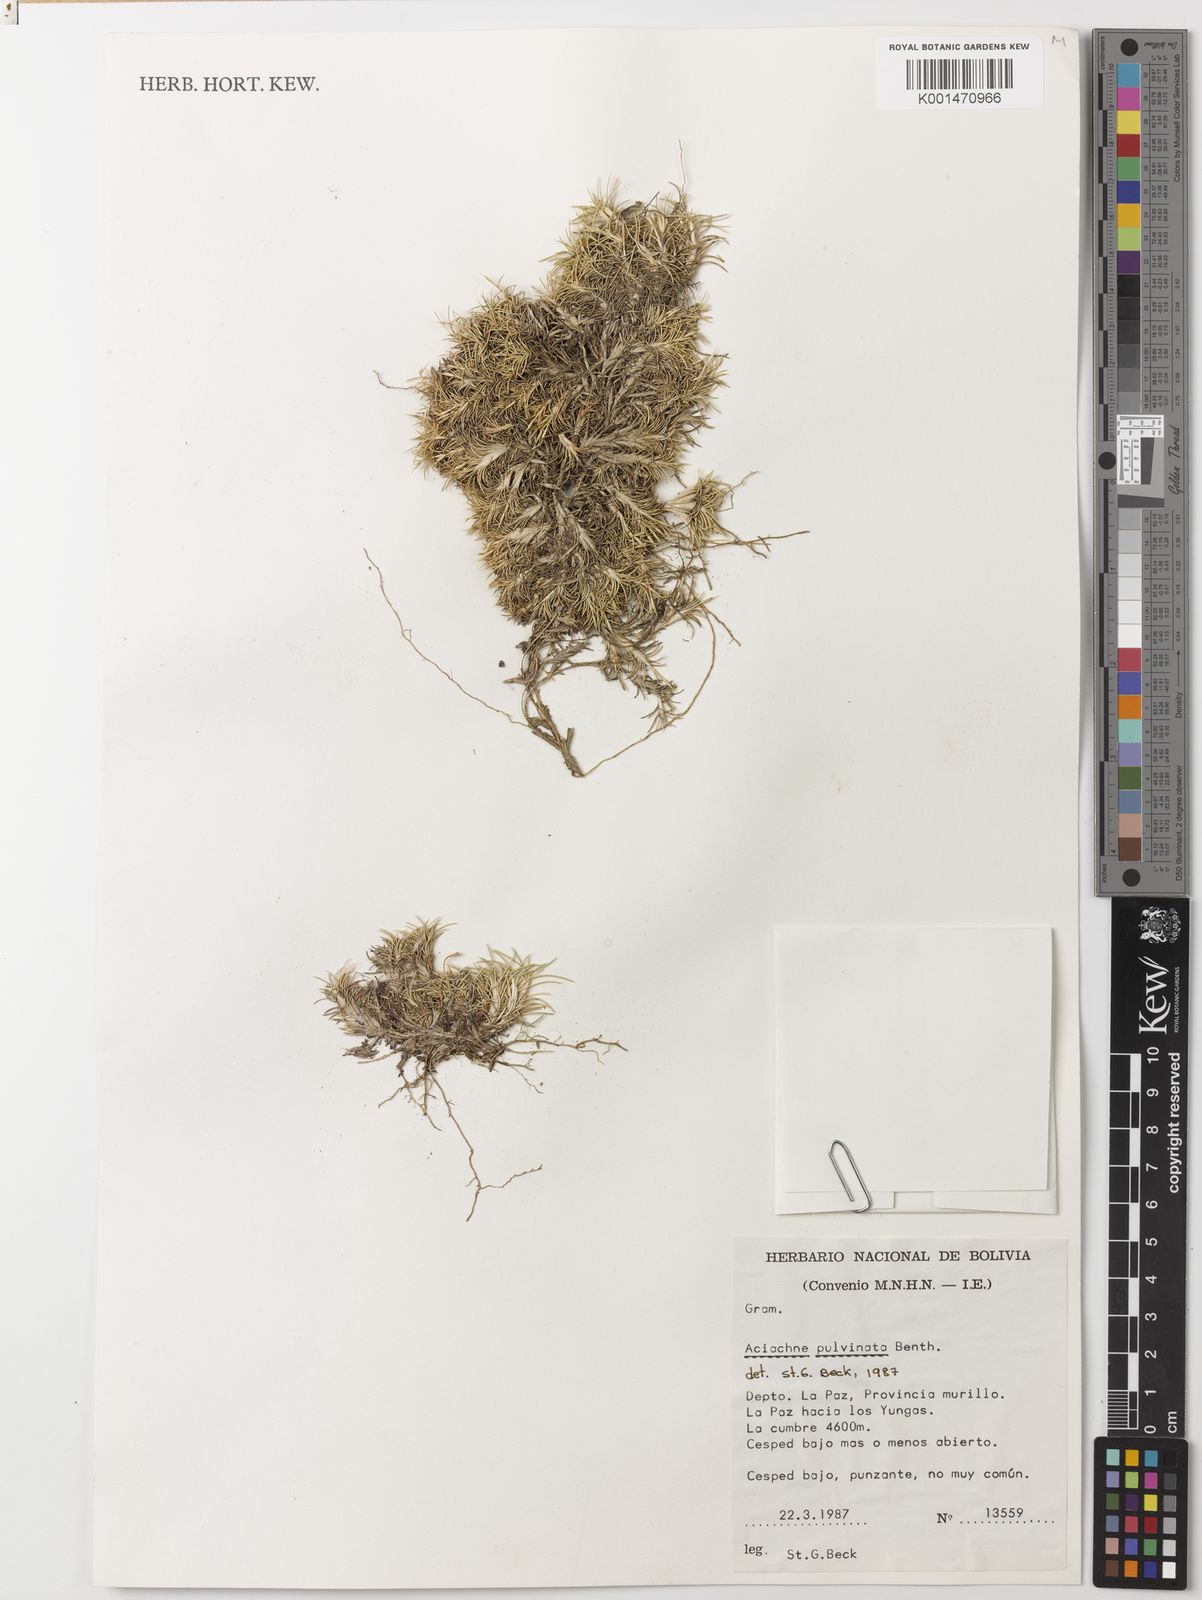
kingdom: Plantae
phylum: Tracheophyta
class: Liliopsida
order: Poales
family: Poaceae
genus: Aciachne
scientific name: Aciachne pulvinata
